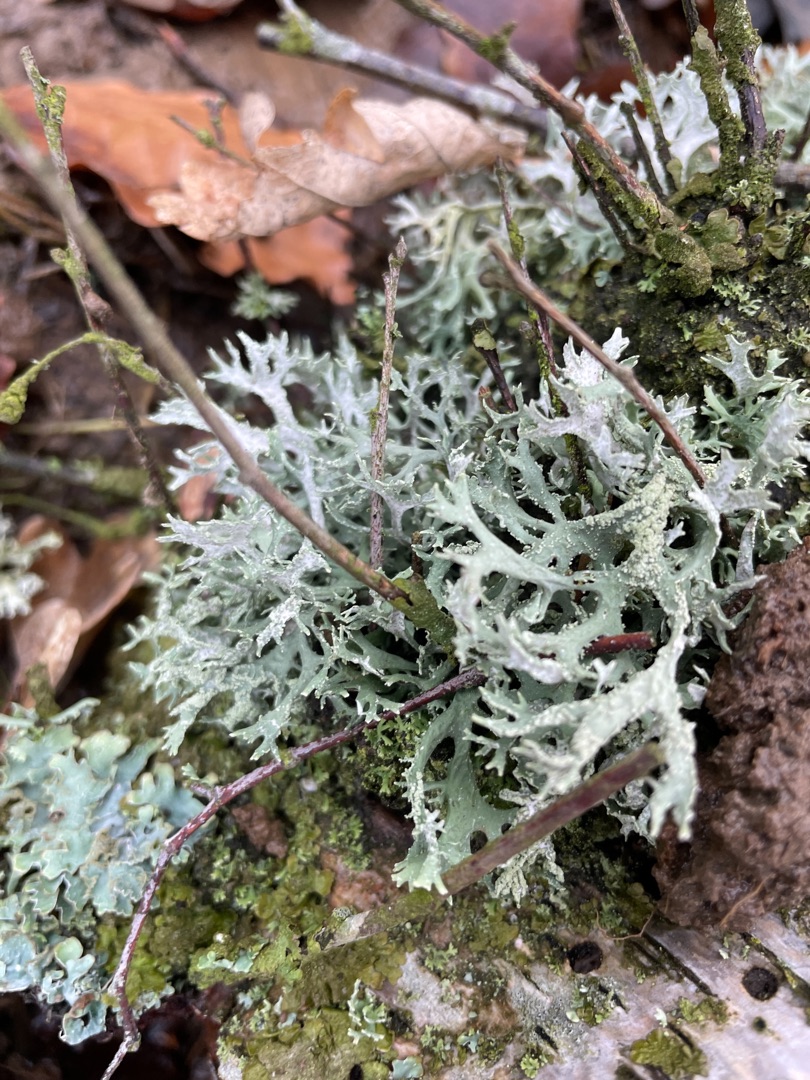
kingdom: Fungi
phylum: Ascomycota
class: Lecanoromycetes
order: Lecanorales
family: Parmeliaceae
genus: Evernia
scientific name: Evernia prunastri
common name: Almindelig slåenlav
